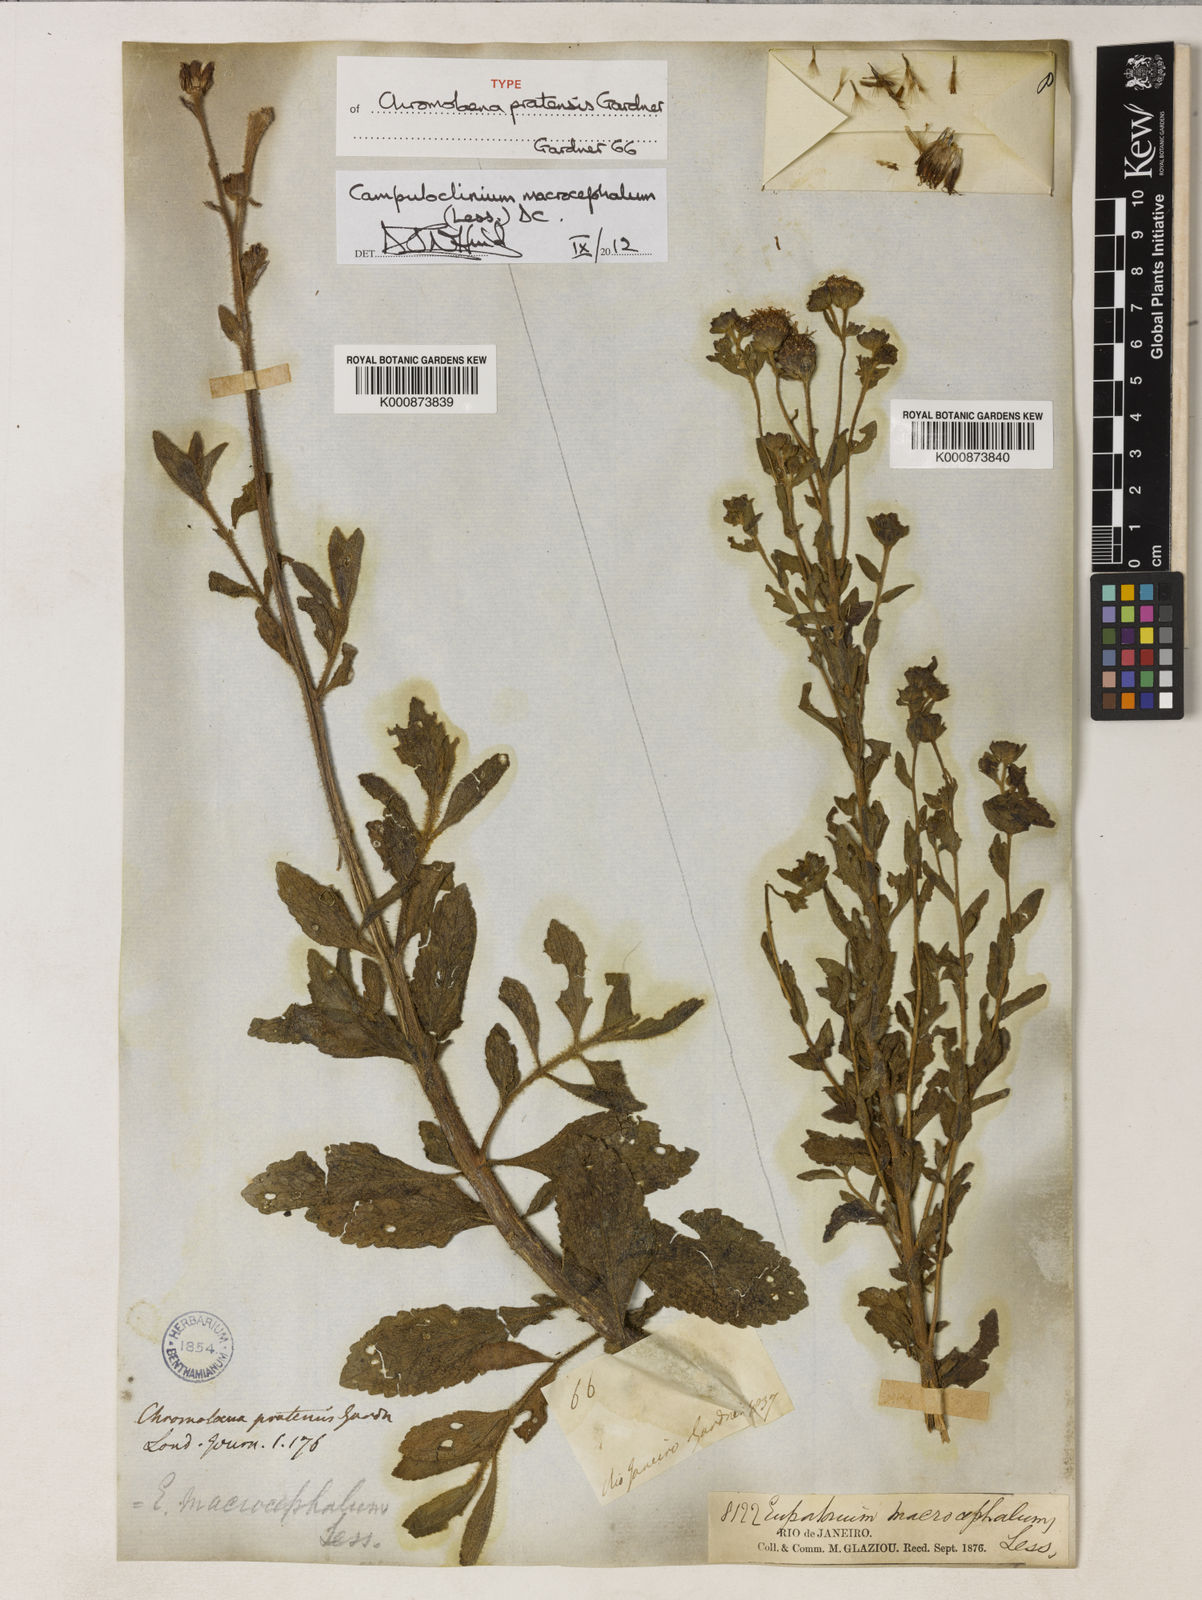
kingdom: Plantae
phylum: Tracheophyta
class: Magnoliopsida
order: Asterales
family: Asteraceae
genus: Campuloclinium
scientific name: Campuloclinium macrocephalum
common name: Pompomweed
